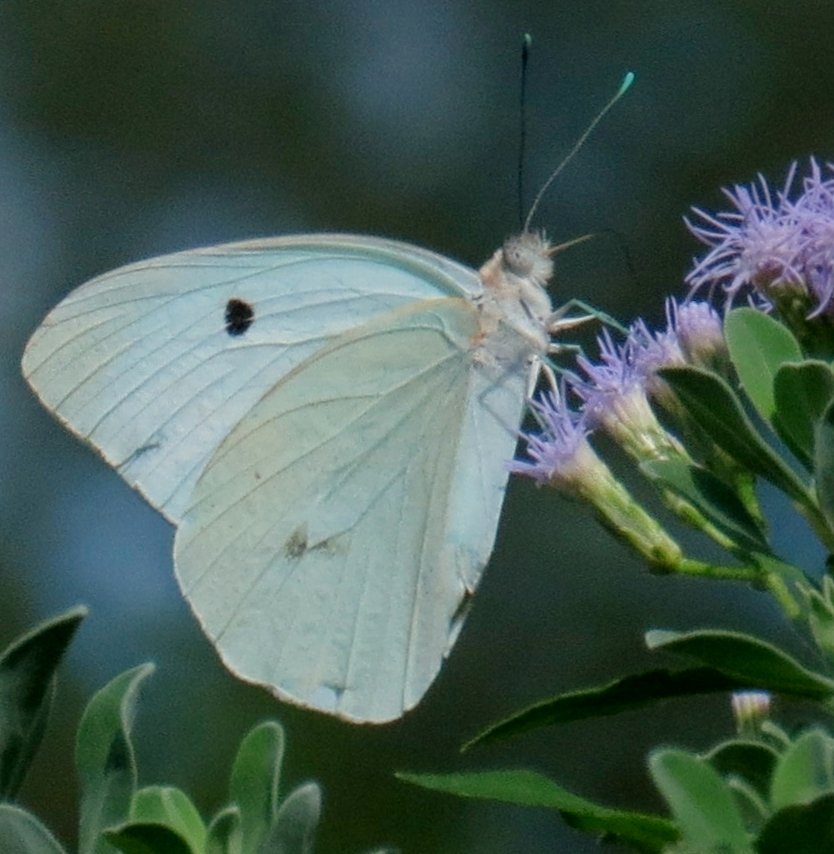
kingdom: Animalia
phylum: Arthropoda
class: Insecta
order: Lepidoptera
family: Pieridae
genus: Ganyra
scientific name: Ganyra josephina
